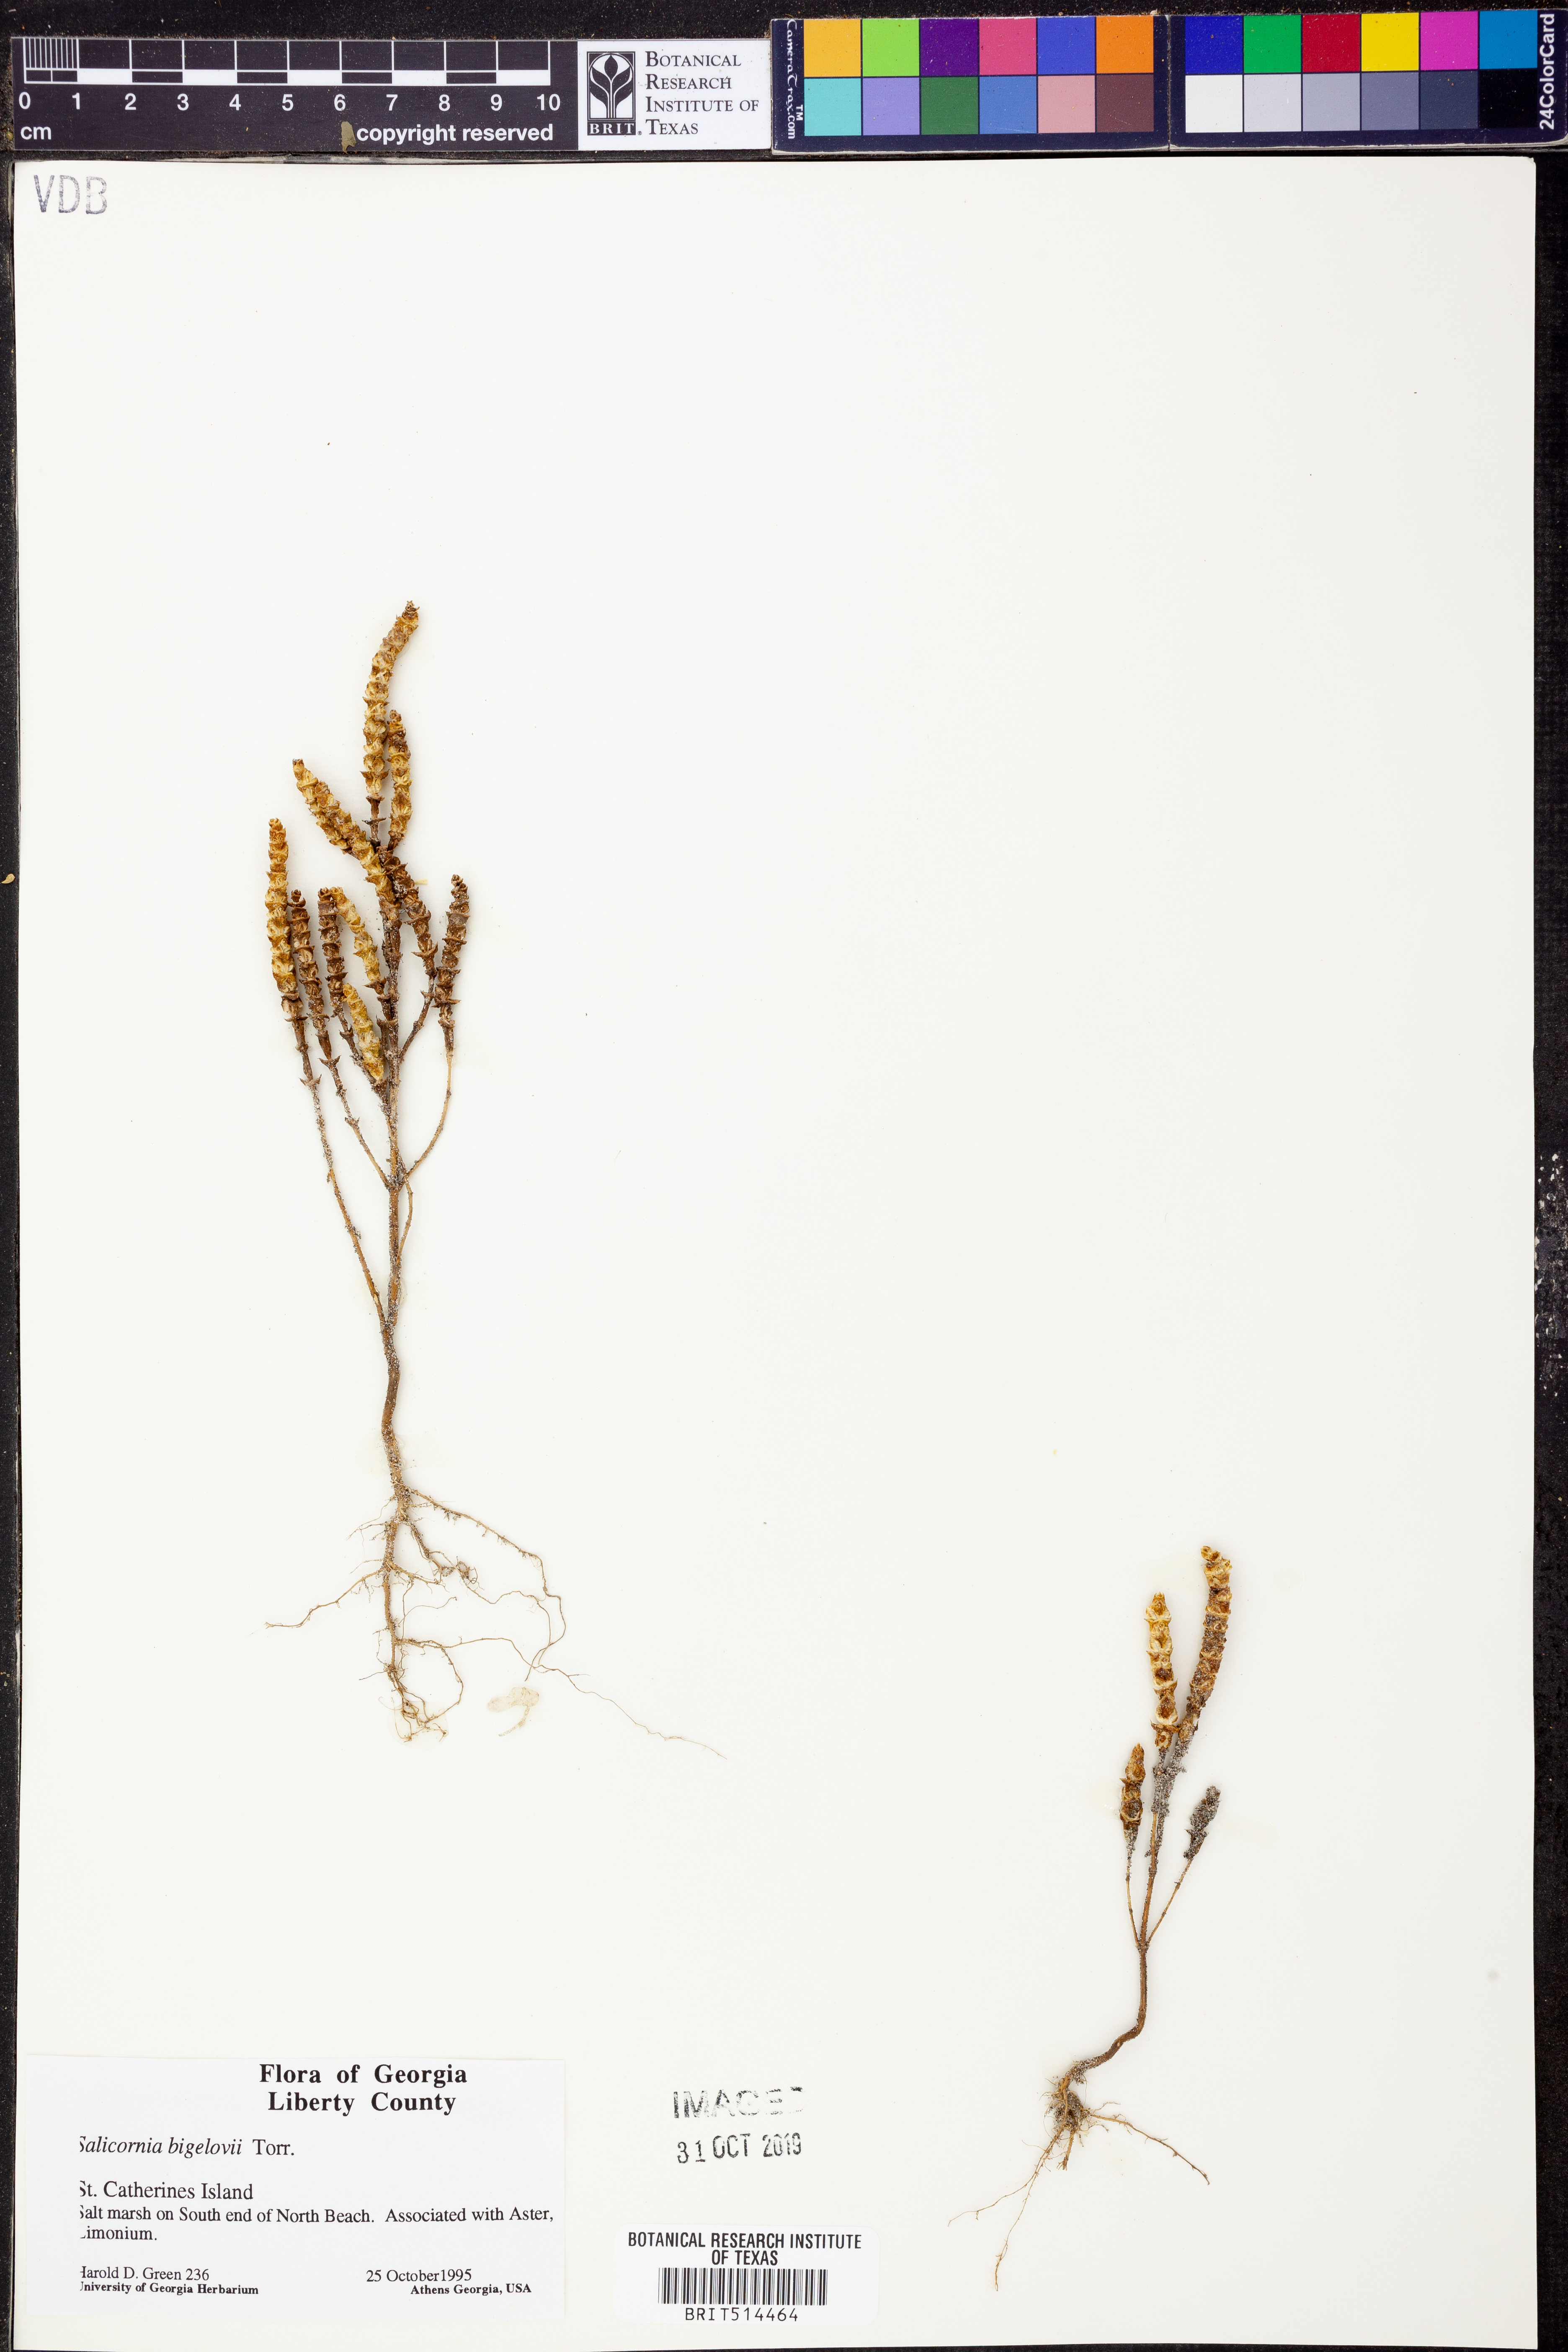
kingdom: Plantae
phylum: Tracheophyta
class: Magnoliopsida
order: Caryophyllales
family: Amaranthaceae
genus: Salicornia
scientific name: Salicornia bigelovii
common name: Dwarf glasswort
